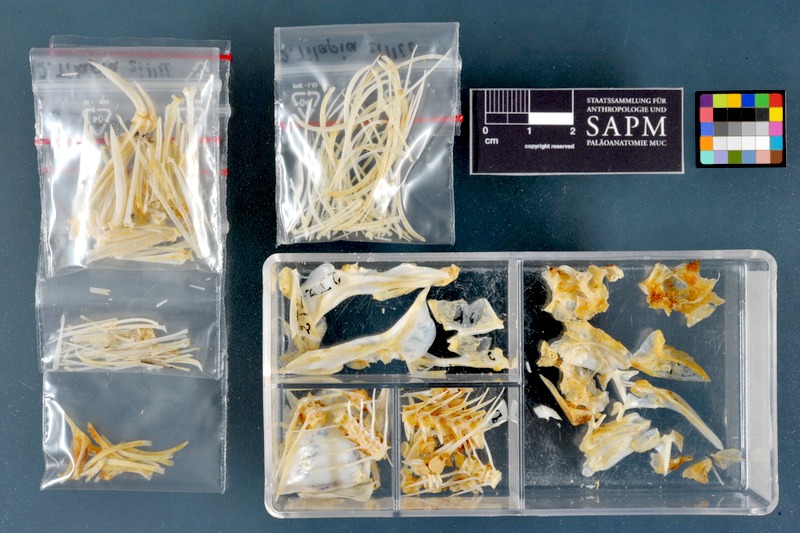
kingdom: Animalia
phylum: Chordata
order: Perciformes
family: Cichlidae
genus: Coptodon
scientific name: Coptodon zillii
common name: Redbelly tilapia
